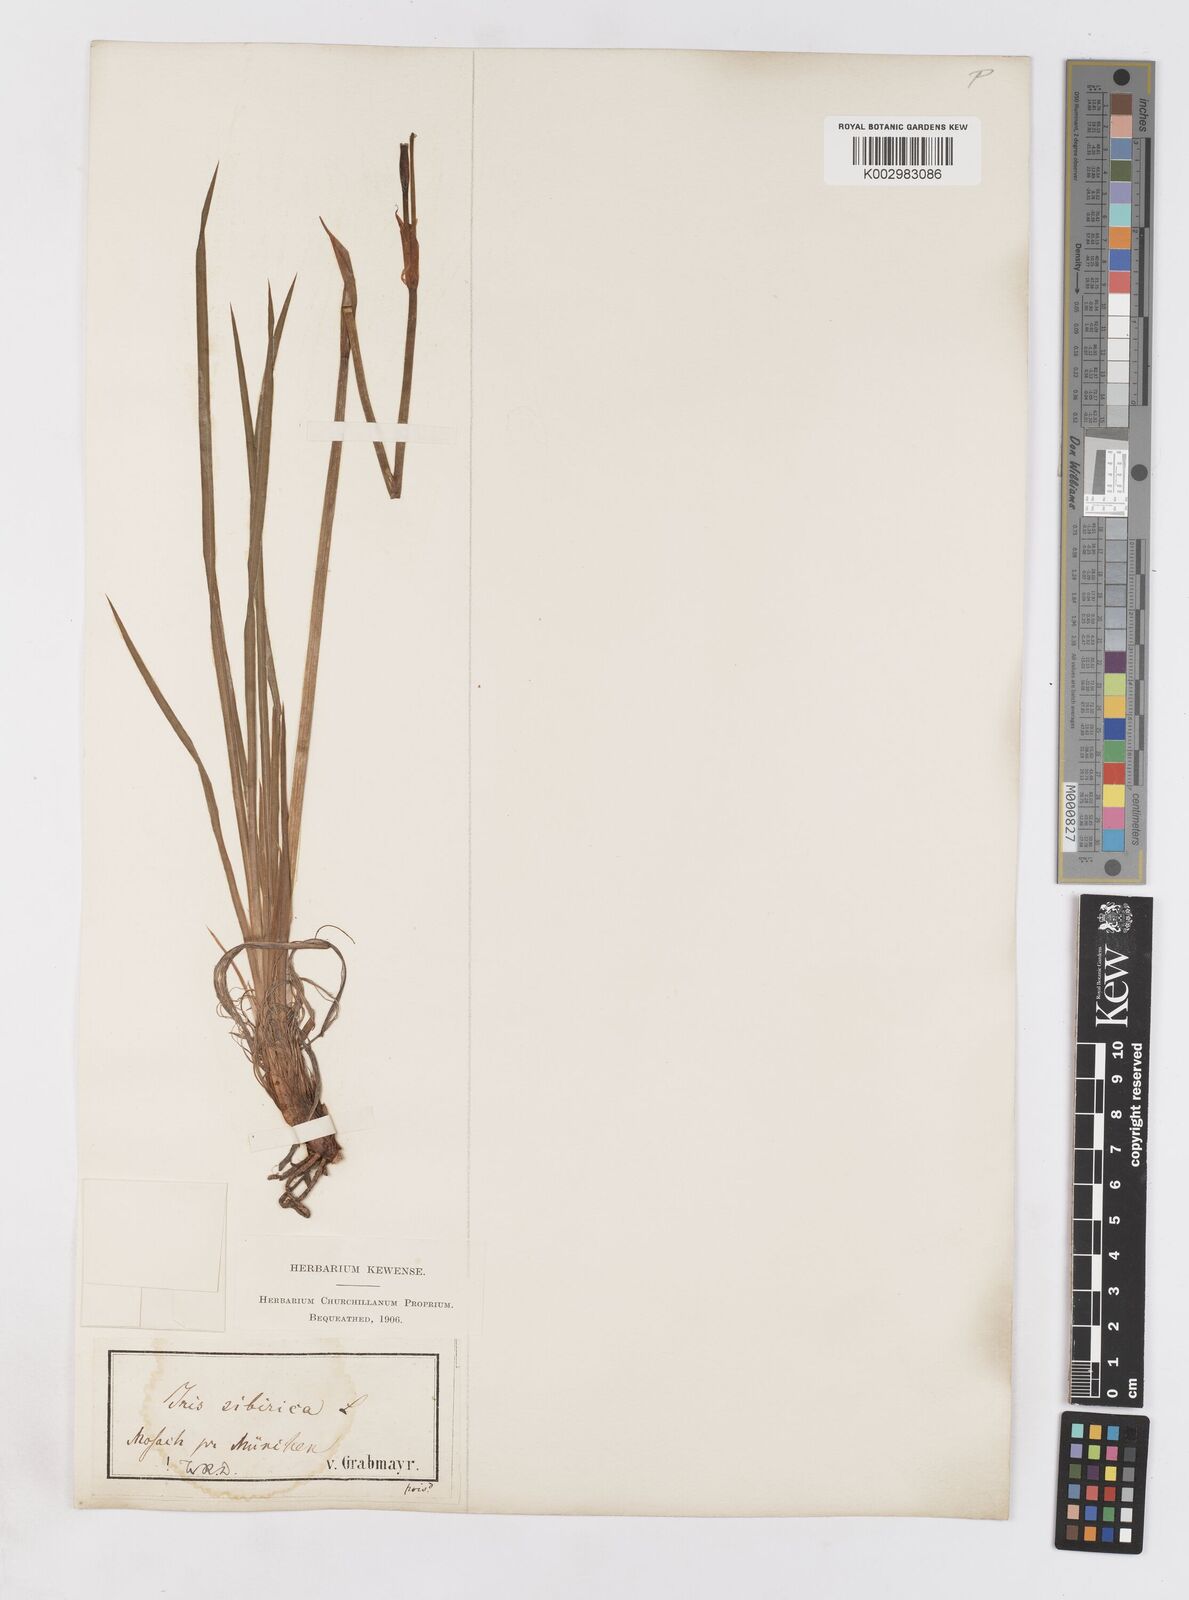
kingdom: Plantae
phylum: Tracheophyta
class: Liliopsida
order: Asparagales
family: Iridaceae
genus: Iris
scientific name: Iris sibirica
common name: Siberian iris
